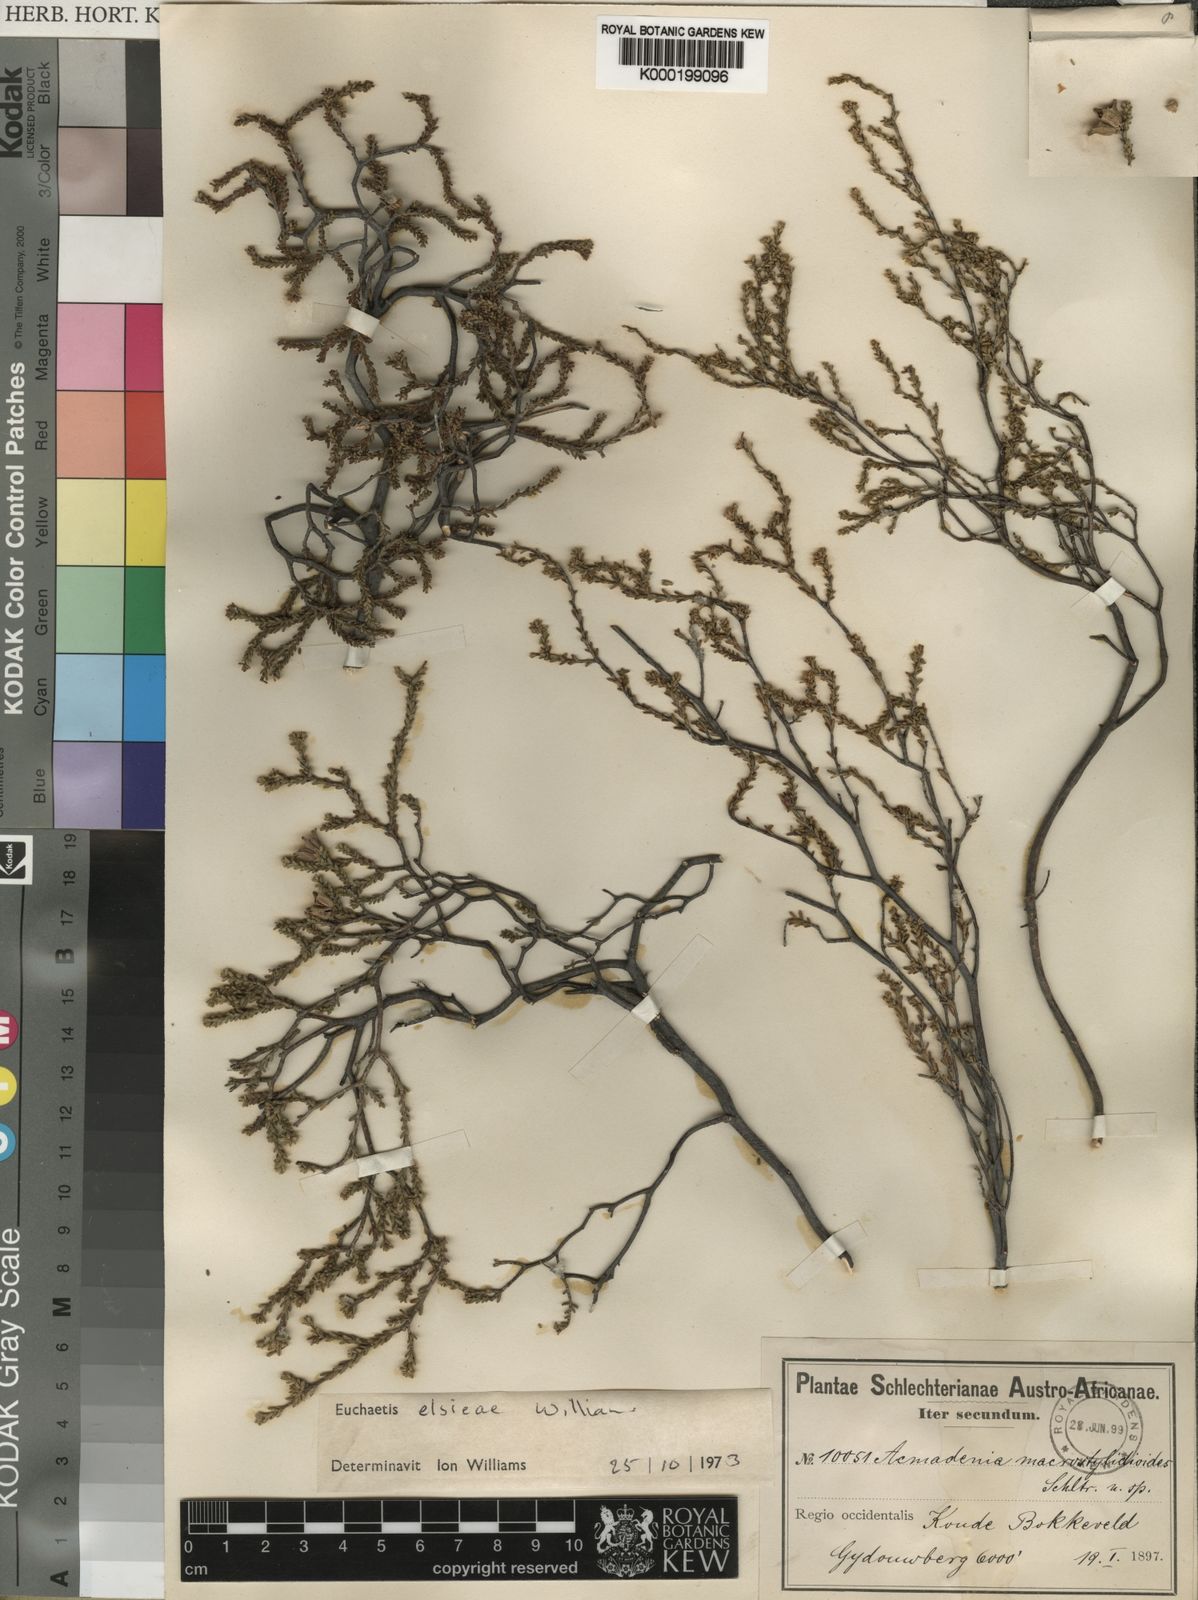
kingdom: Plantae
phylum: Tracheophyta
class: Magnoliopsida
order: Sapindales
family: Rutaceae
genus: Euchaetis
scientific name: Euchaetis elsieae
